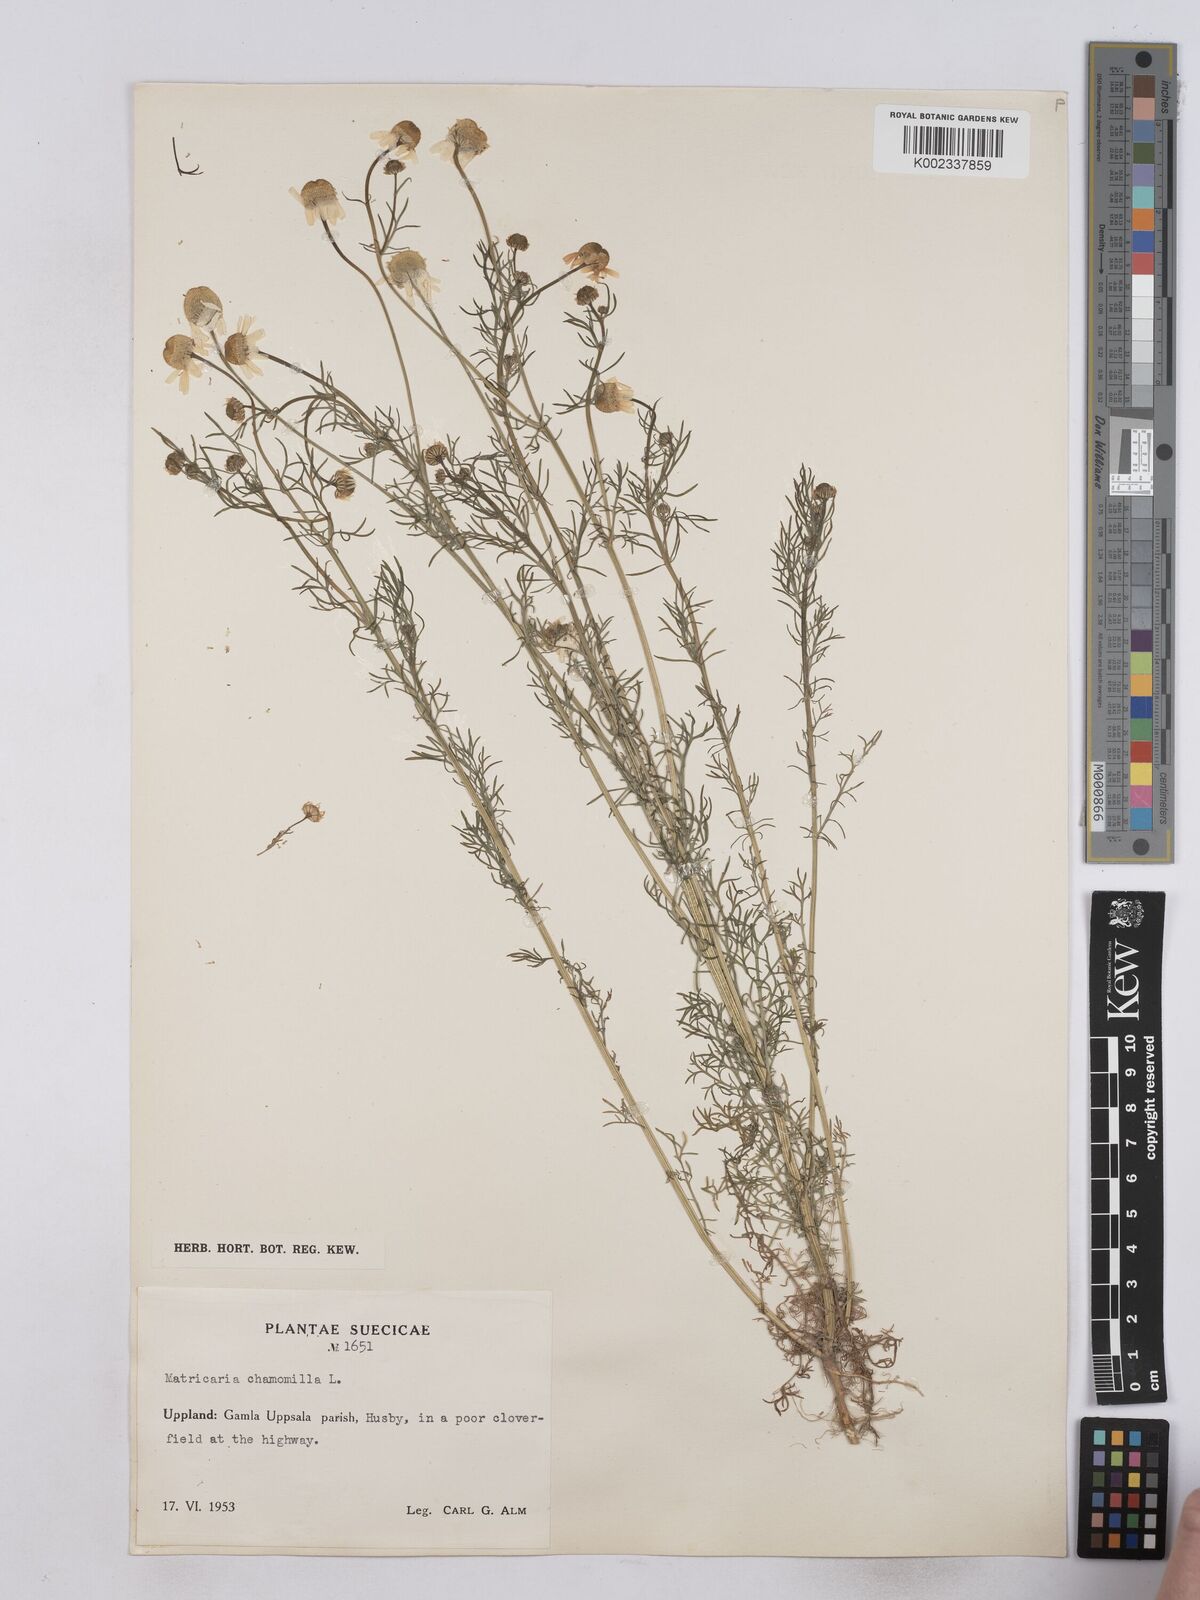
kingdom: Plantae
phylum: Tracheophyta
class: Magnoliopsida
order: Asterales
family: Asteraceae
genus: Matricaria
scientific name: Matricaria chamomilla
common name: Scented mayweed
